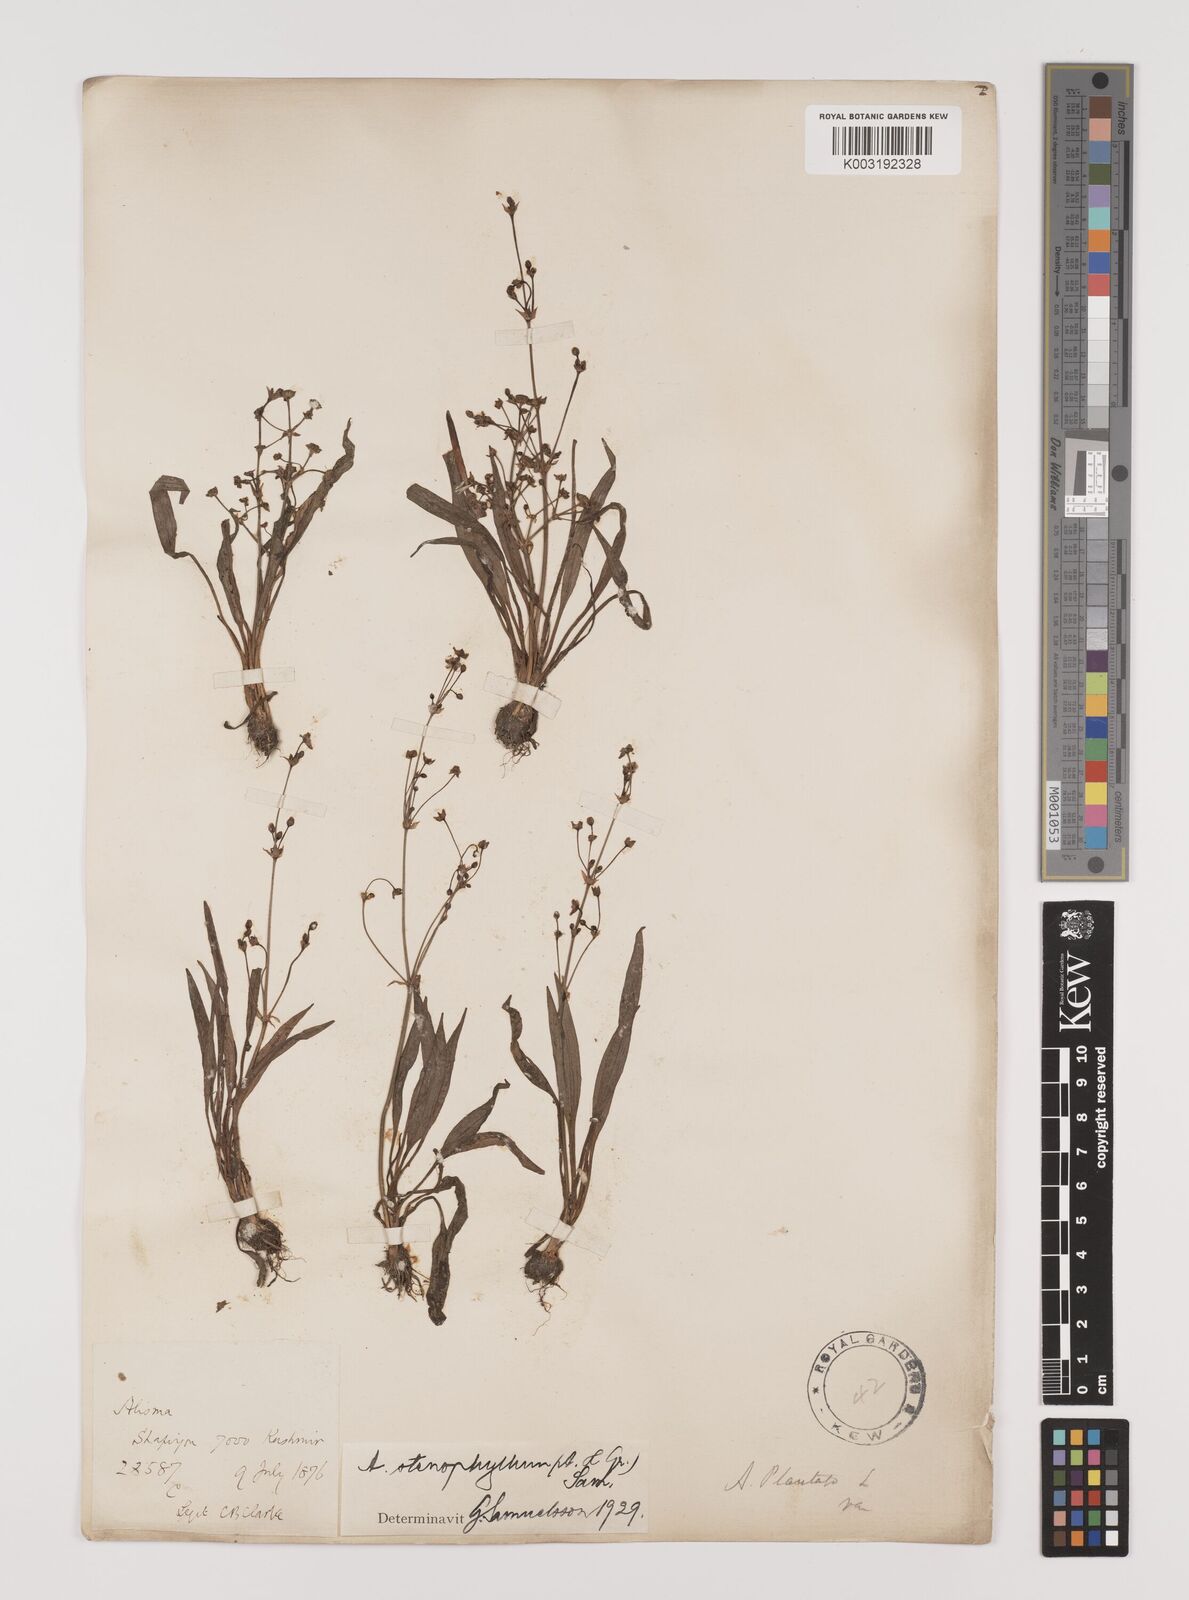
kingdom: Plantae
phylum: Tracheophyta
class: Liliopsida
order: Alismatales
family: Alismataceae
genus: Alisma
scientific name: Alisma lanceolatum
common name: Narrow-leaved water-plantain
